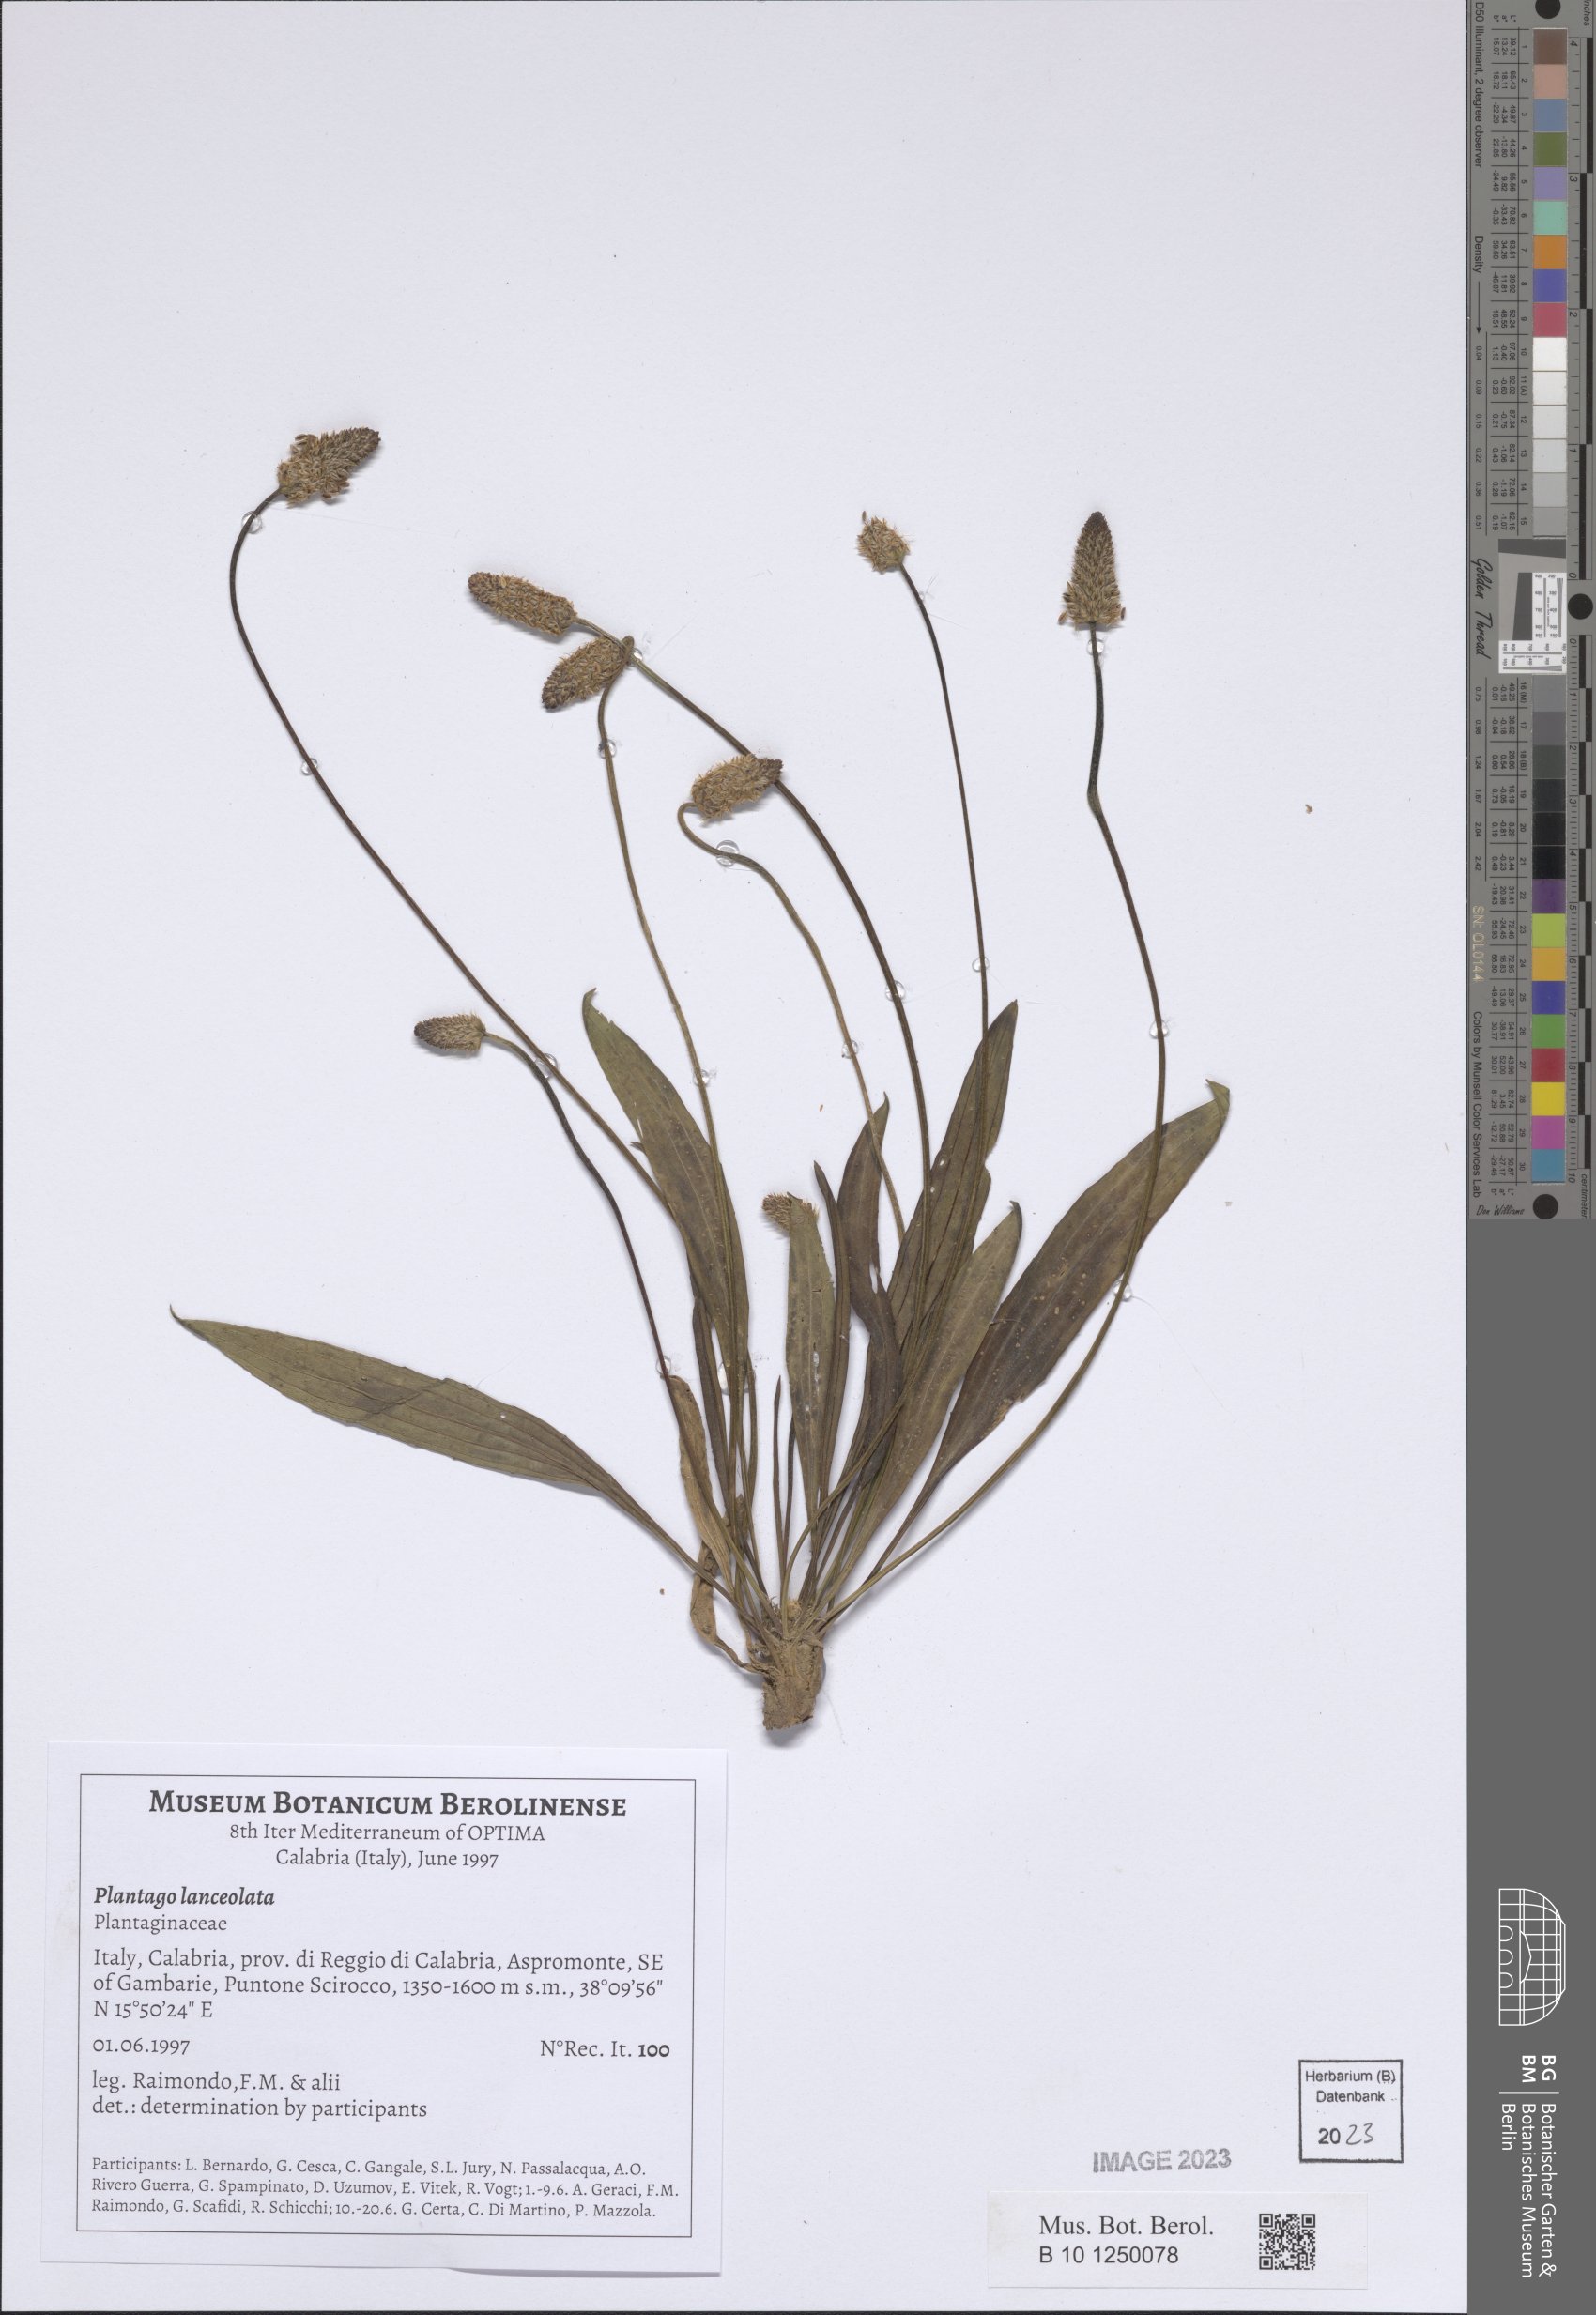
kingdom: Plantae
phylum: Tracheophyta
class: Magnoliopsida
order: Lamiales
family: Plantaginaceae
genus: Plantago
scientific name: Plantago lanceolata
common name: Ribwort plantain
